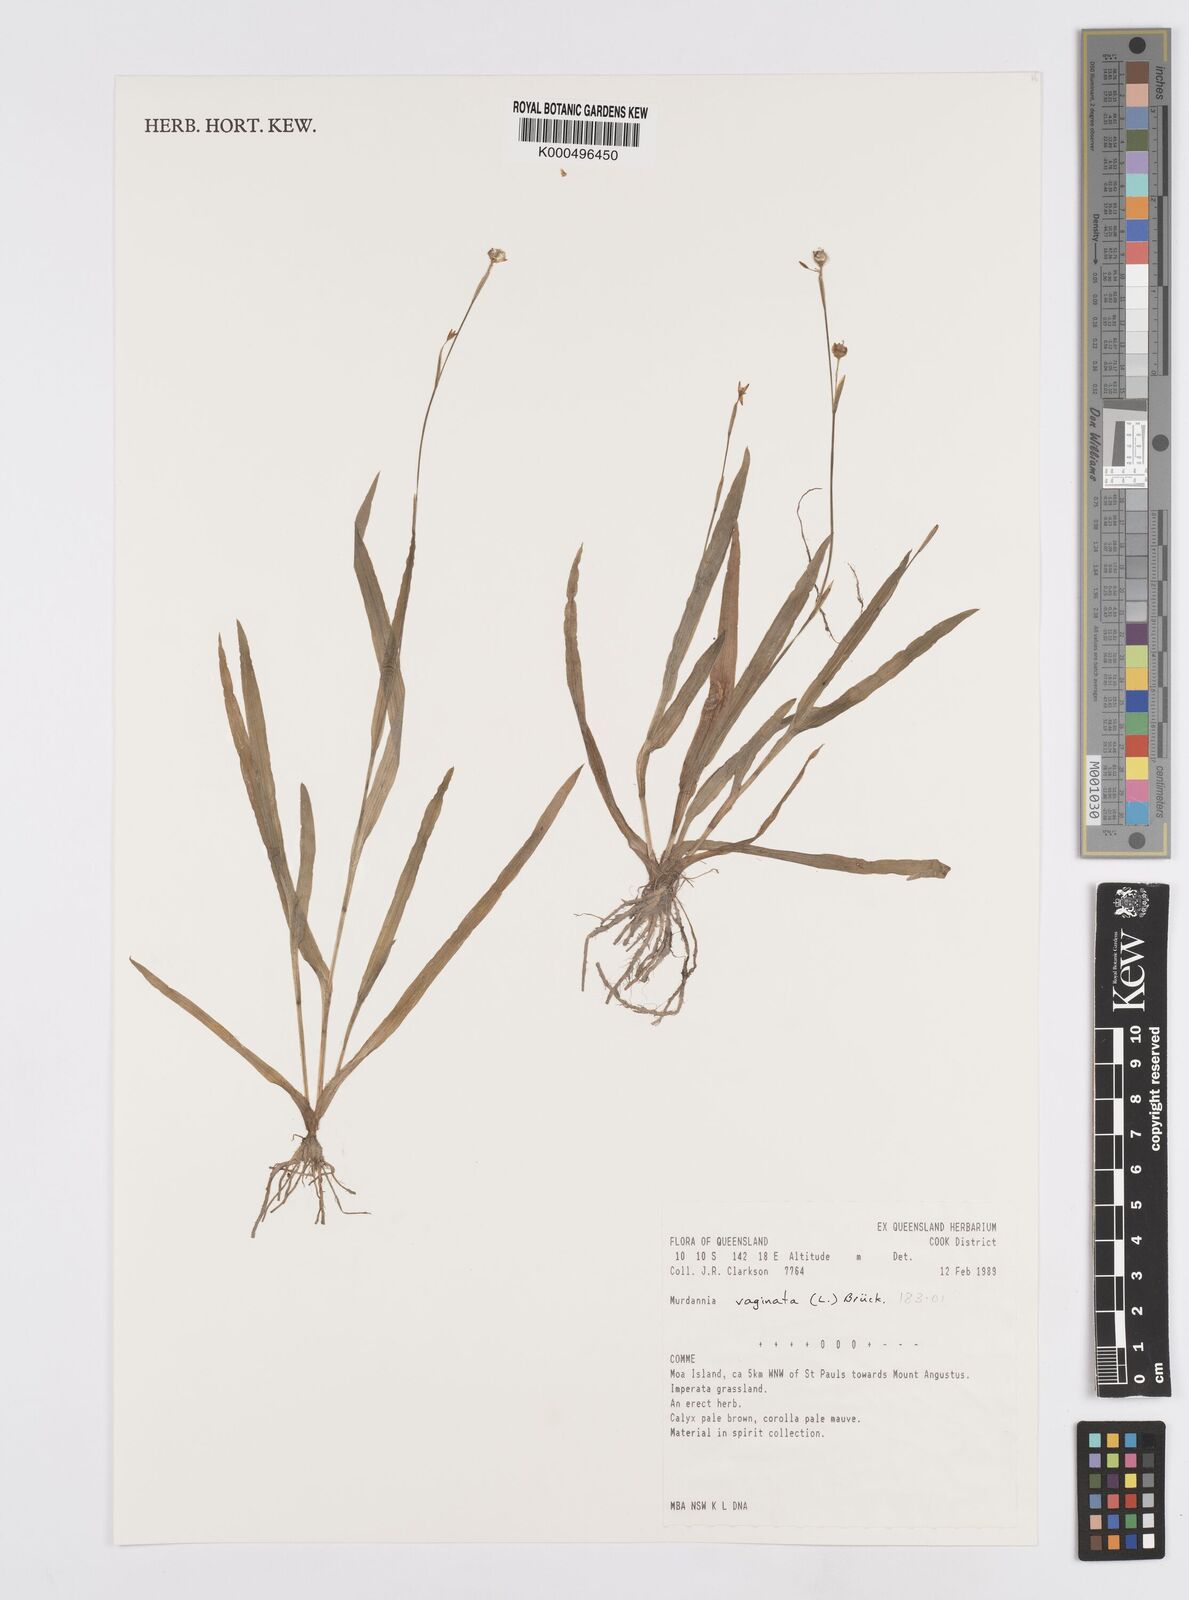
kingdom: Plantae
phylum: Tracheophyta
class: Liliopsida
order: Commelinales
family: Commelinaceae
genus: Murdannia
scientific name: Murdannia
